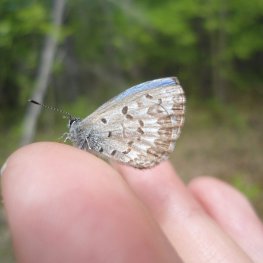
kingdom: Animalia
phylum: Arthropoda
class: Insecta
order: Lepidoptera
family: Lycaenidae
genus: Celastrina
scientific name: Celastrina lucia
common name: Northern Spring Azure
